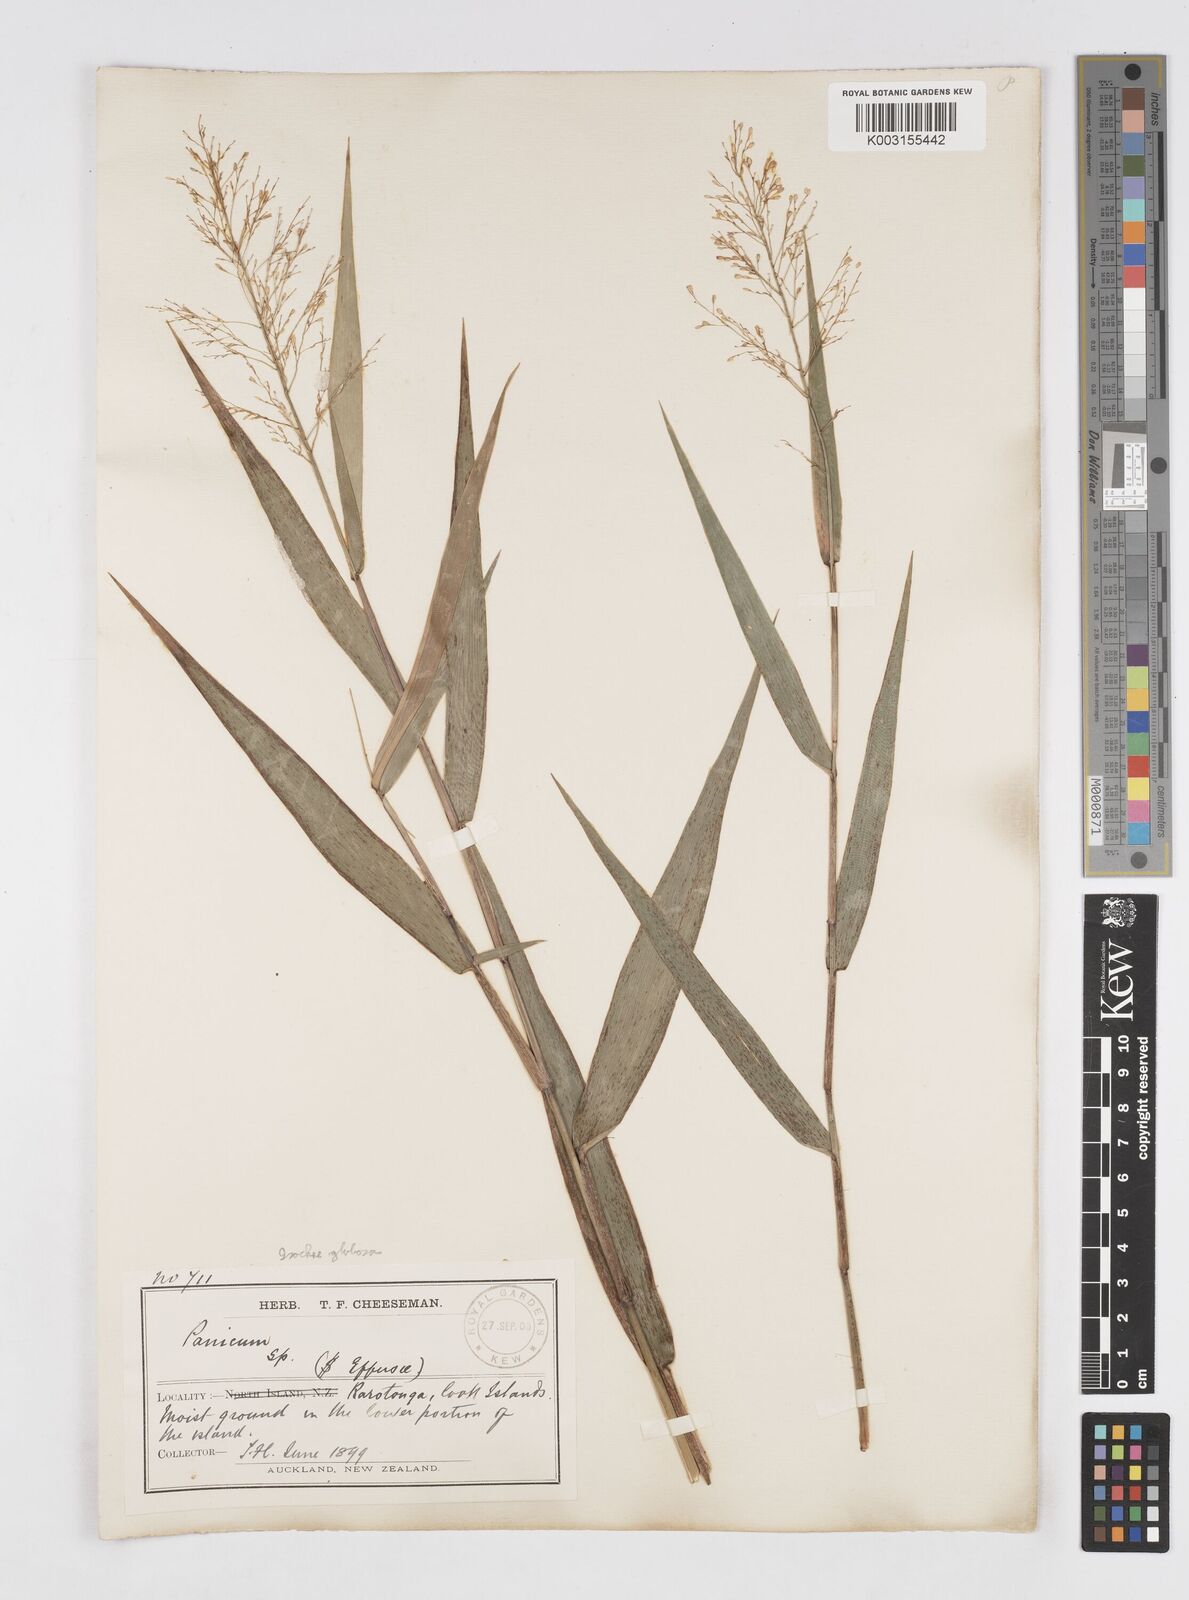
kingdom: Plantae
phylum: Tracheophyta
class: Liliopsida
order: Poales
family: Poaceae
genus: Isachne
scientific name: Isachne globosa
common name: Swamp millet
